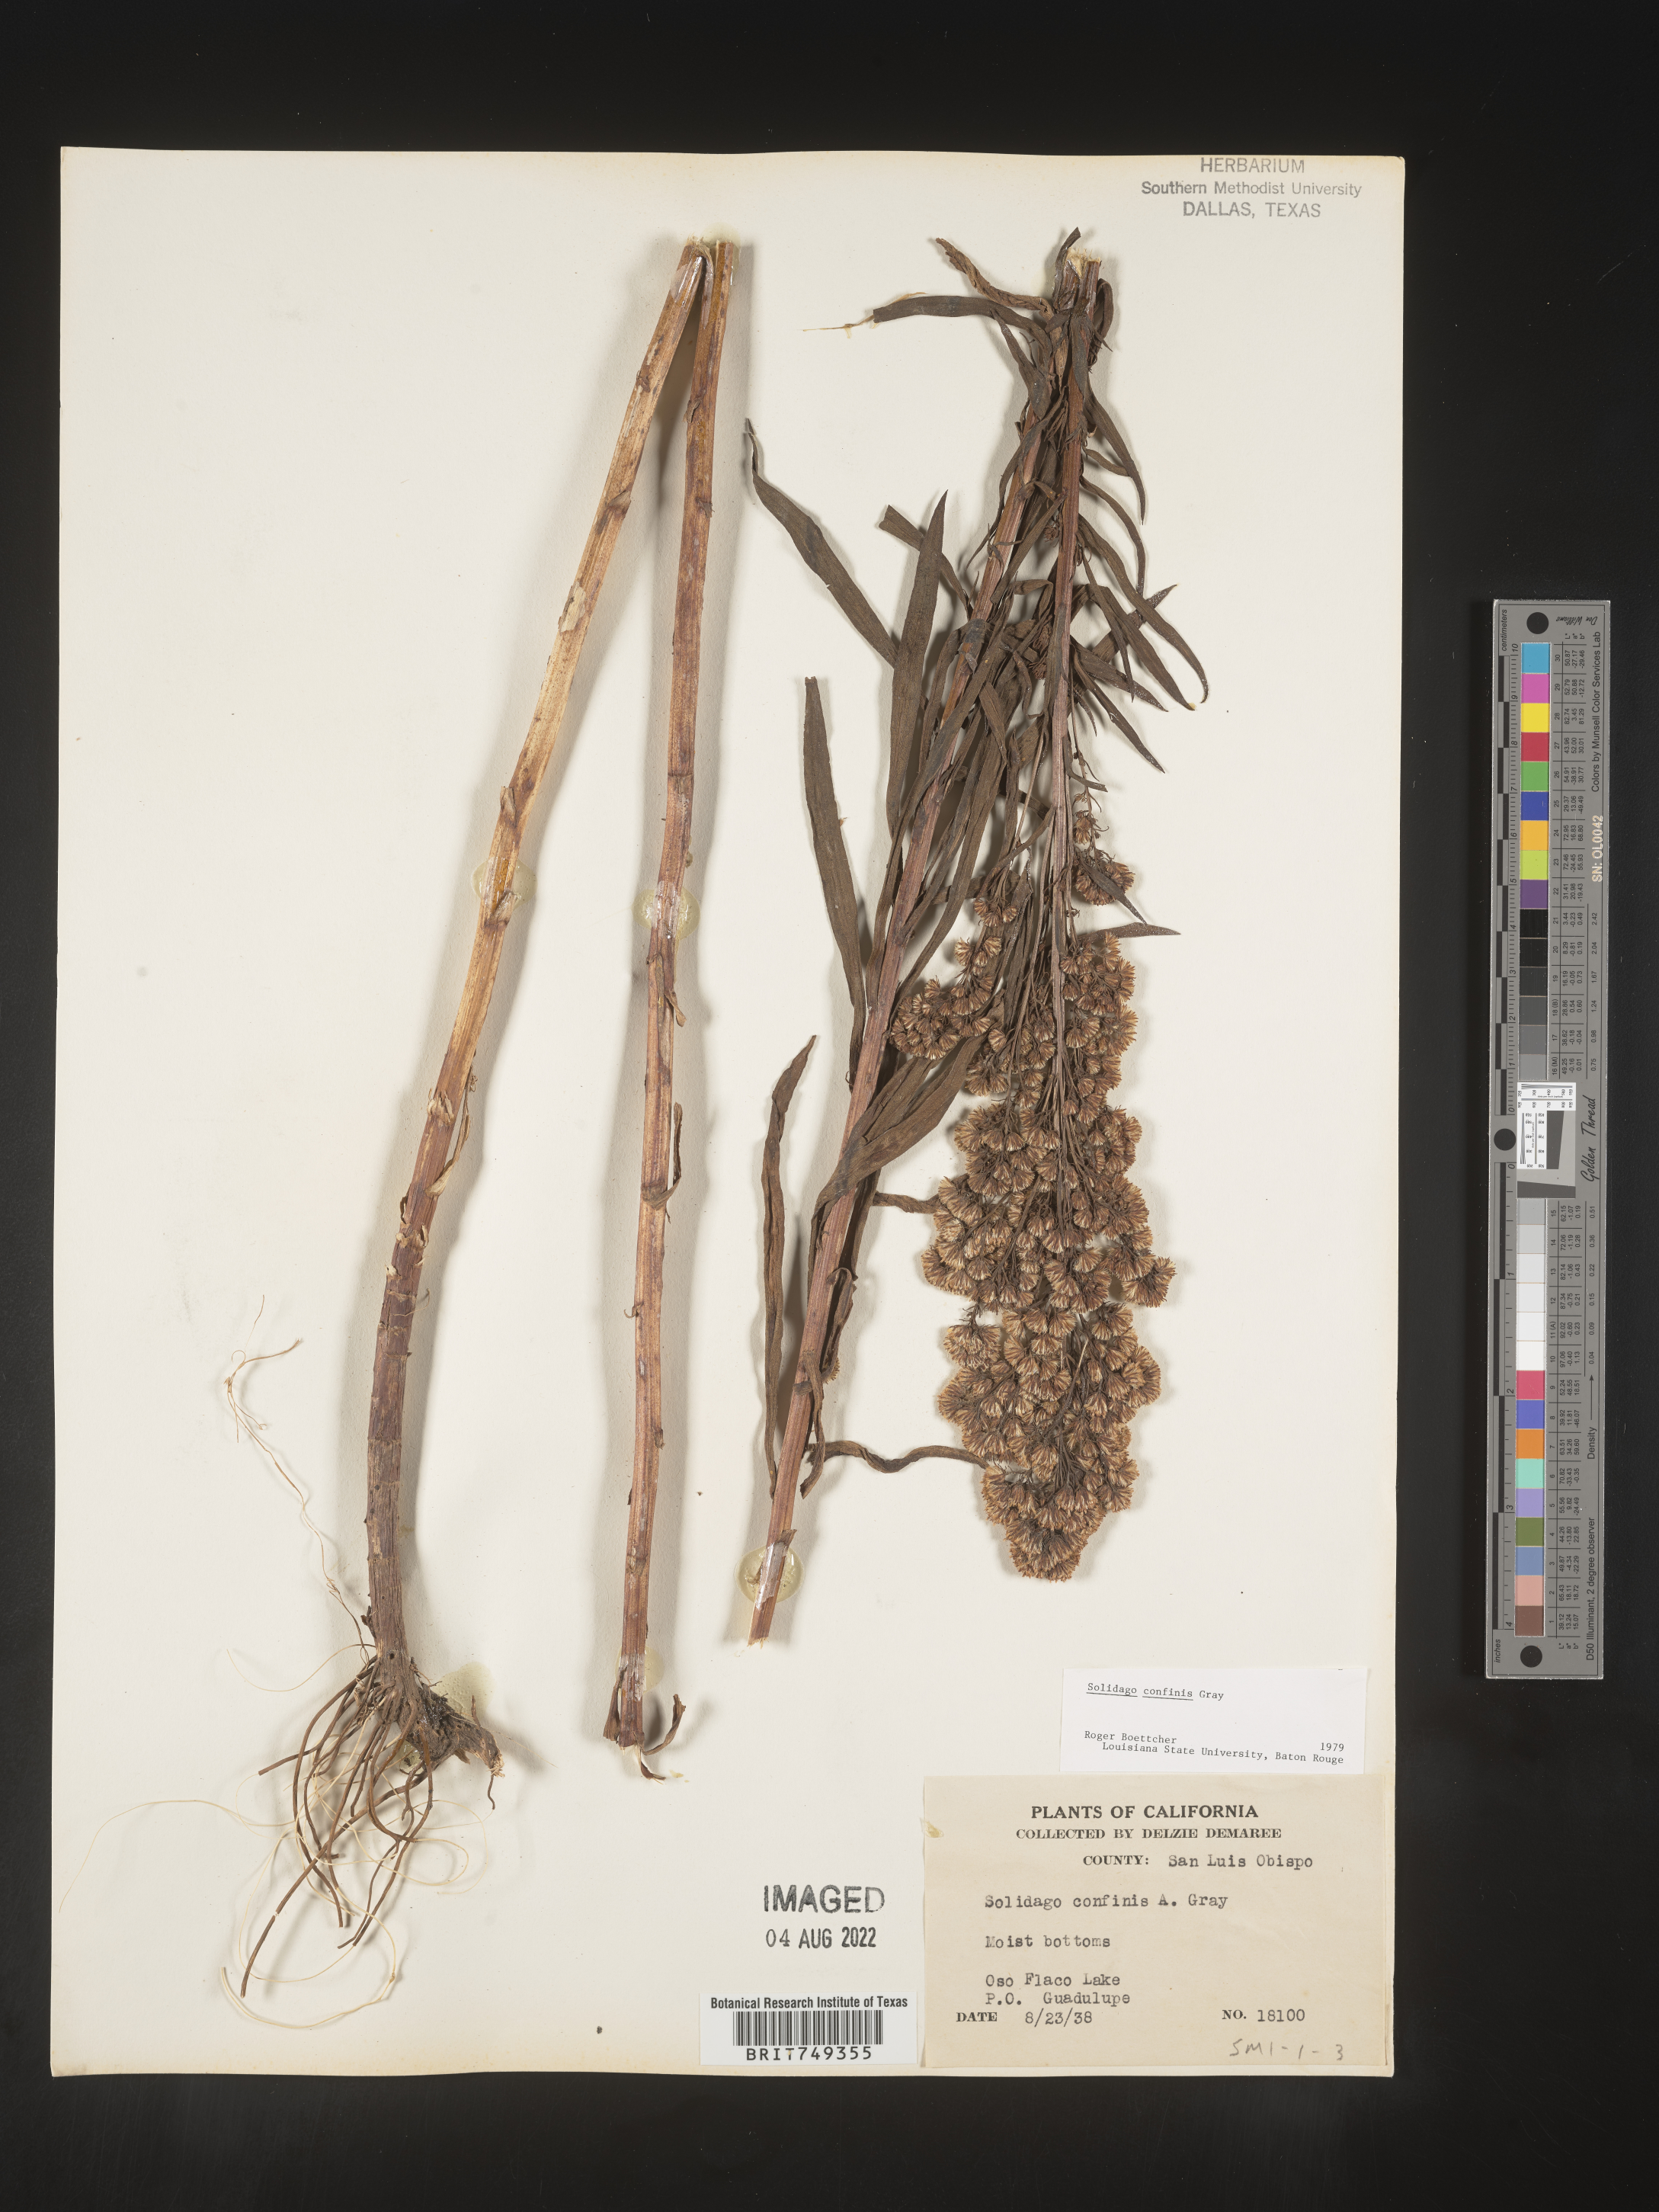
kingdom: Plantae
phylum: Tracheophyta
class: Magnoliopsida
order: Asterales
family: Asteraceae
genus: Solidago
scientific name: Solidago confinis
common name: Southern goldenrod
